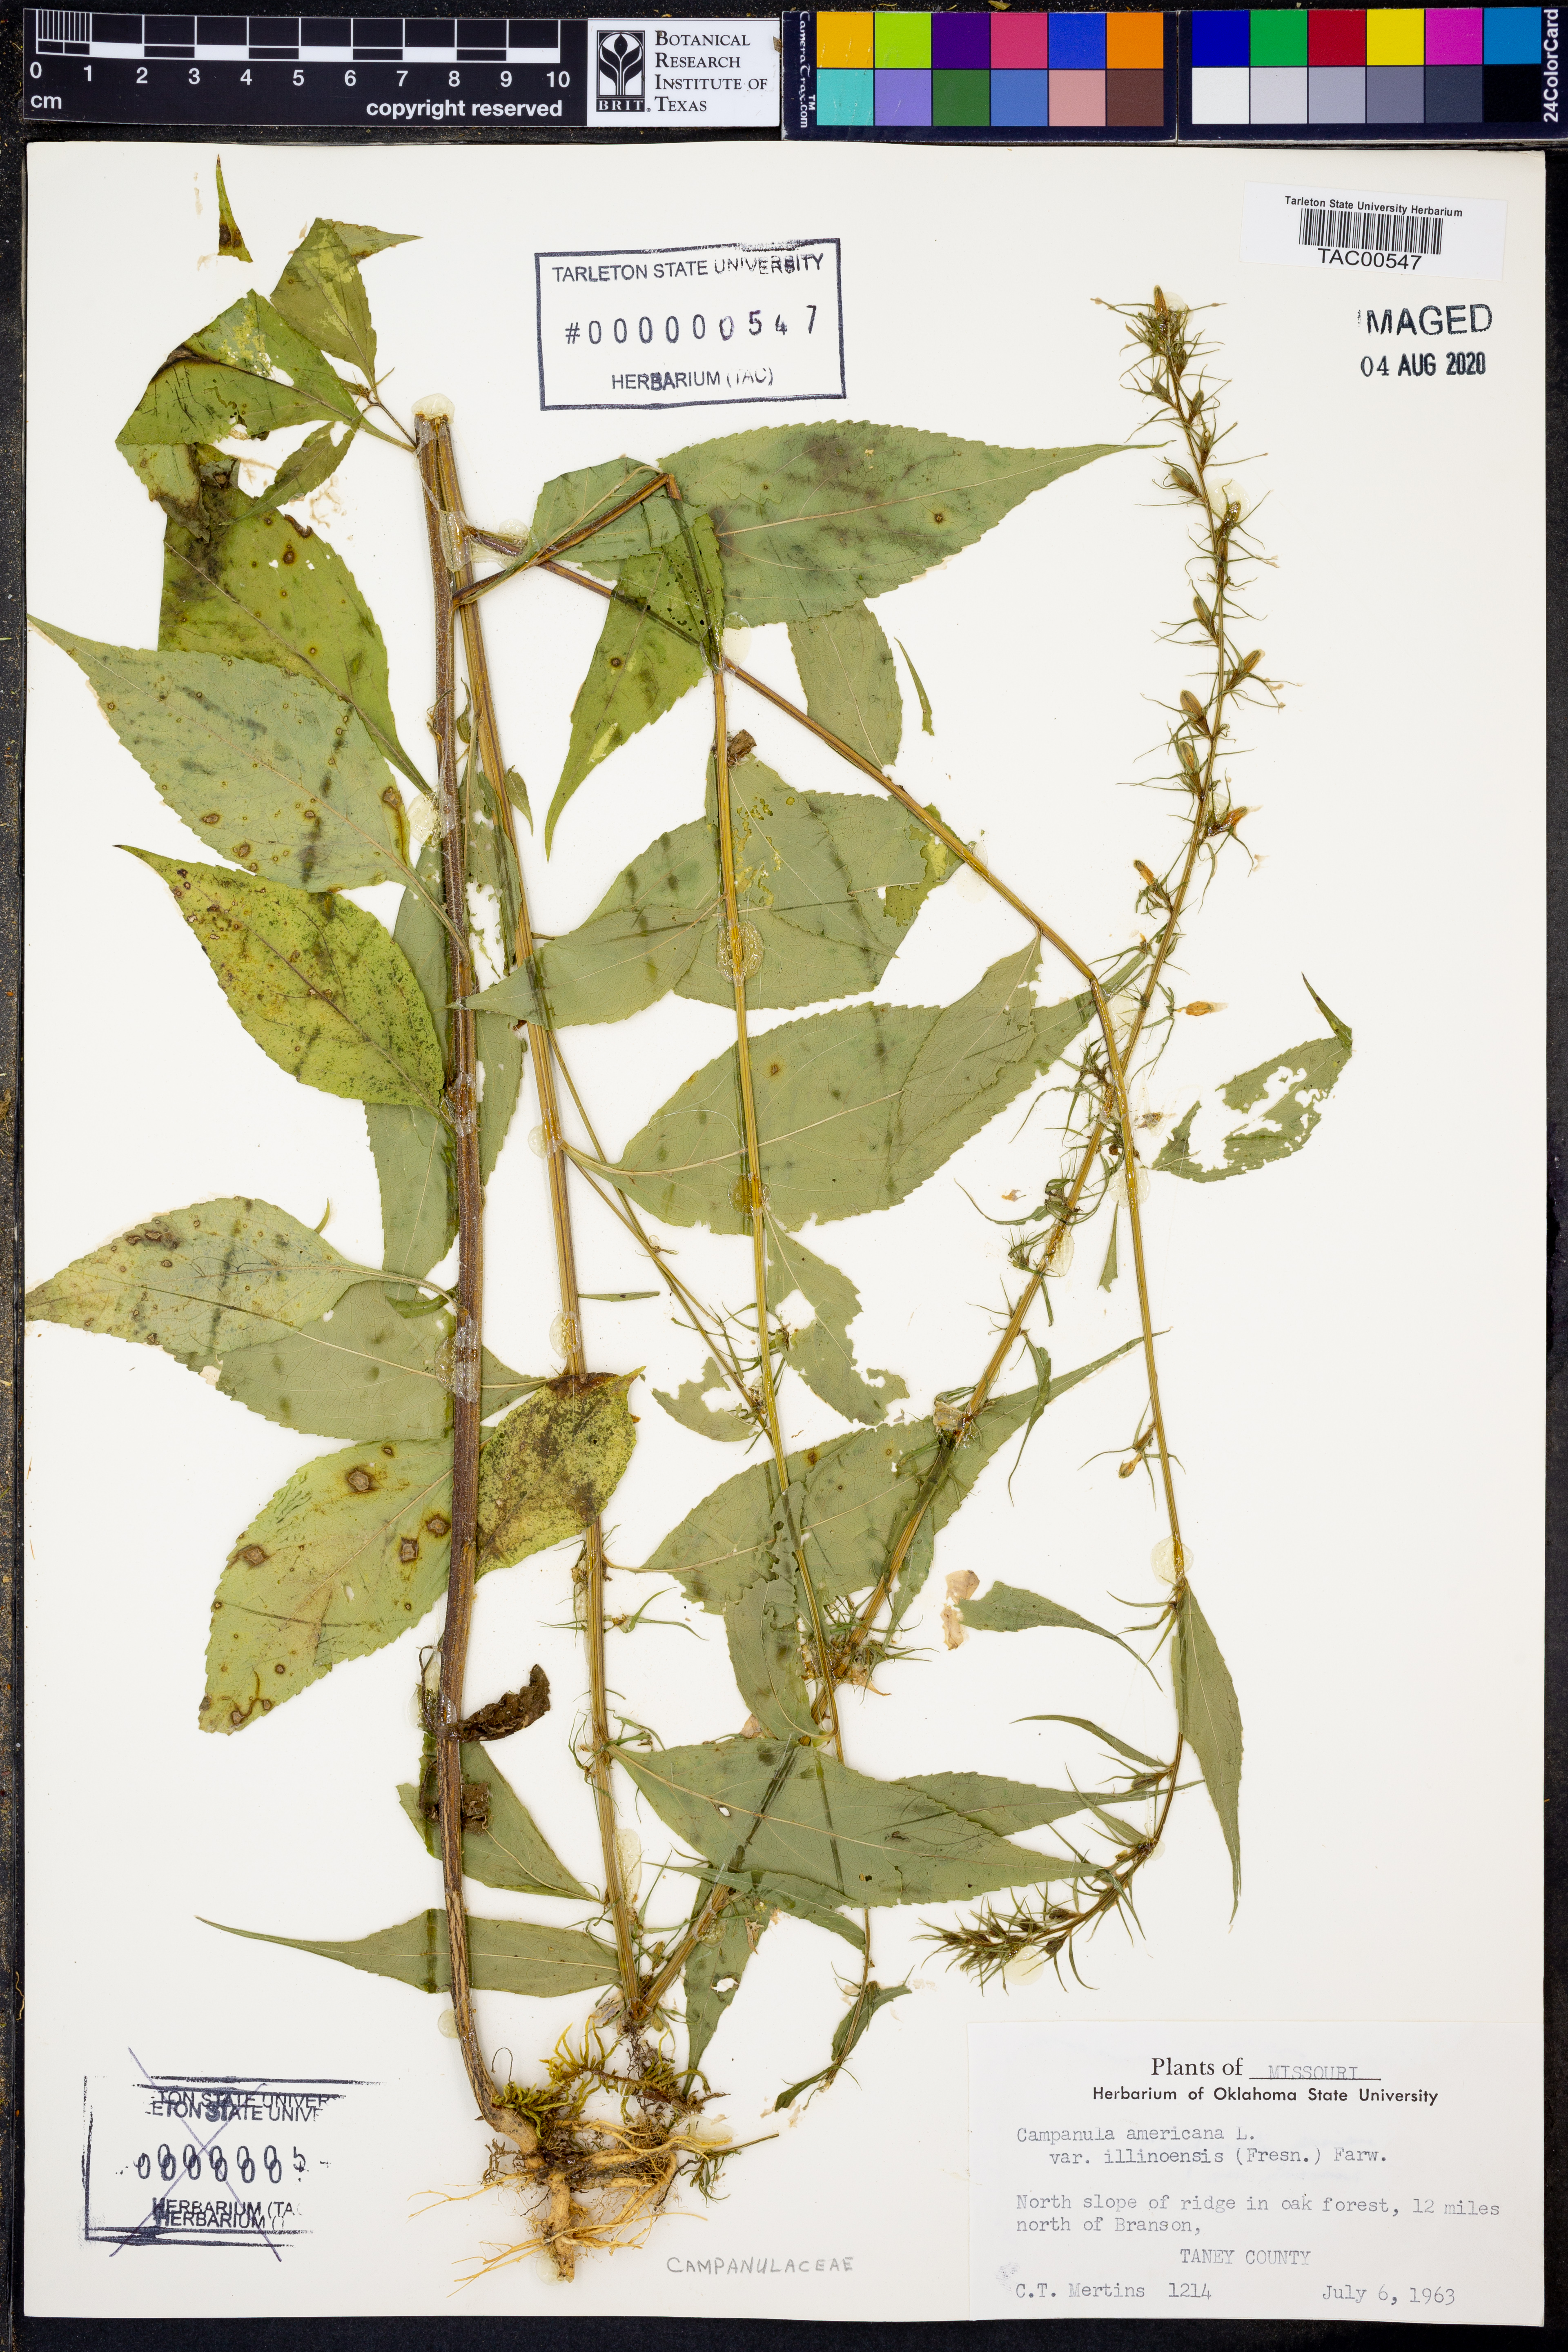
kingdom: Plantae
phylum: Tracheophyta
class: Magnoliopsida
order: Asterales
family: Campanulaceae
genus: Campanulastrum
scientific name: Campanulastrum americanum
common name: American bellflower
